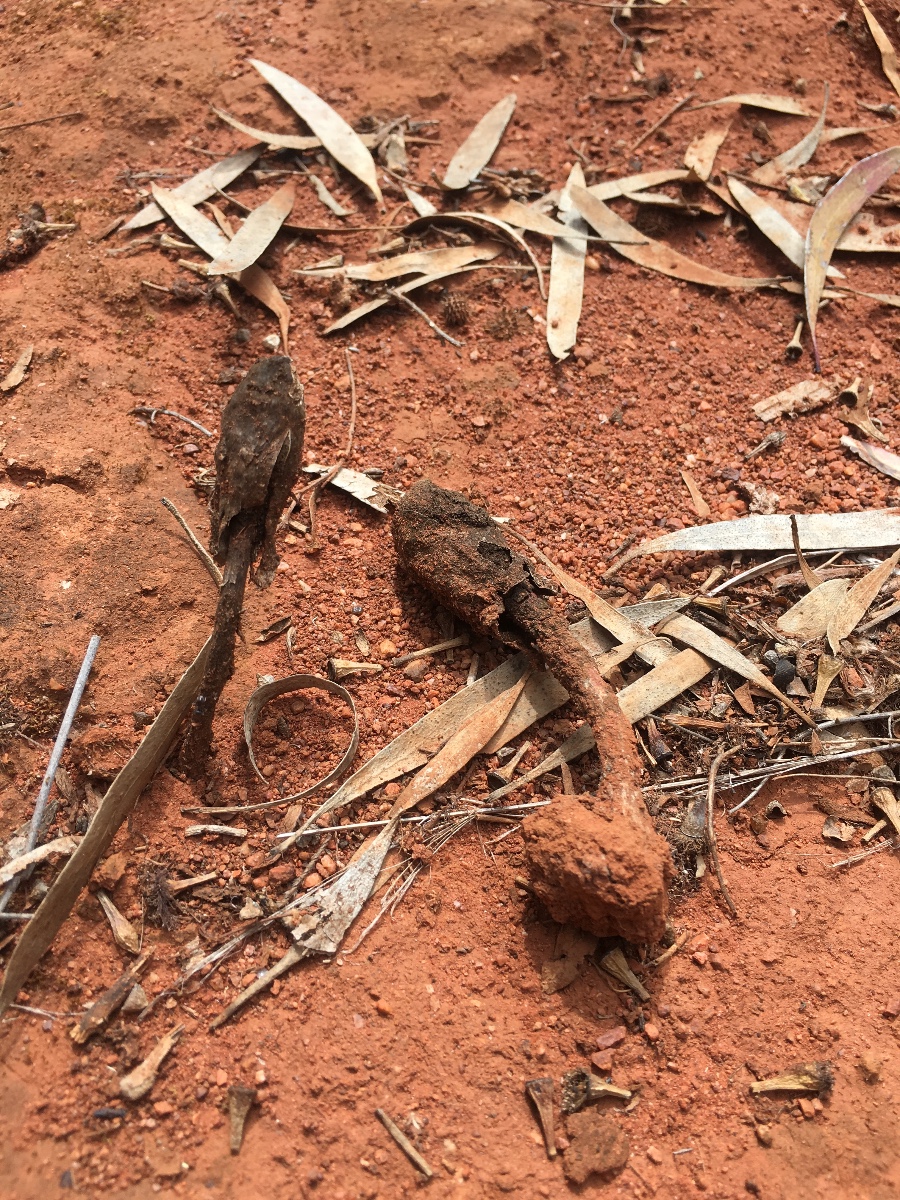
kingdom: Fungi
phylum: Basidiomycota
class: Agaricomycetes
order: Agaricales
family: Agaricaceae
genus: Podaxis
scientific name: Podaxis pistillaris
